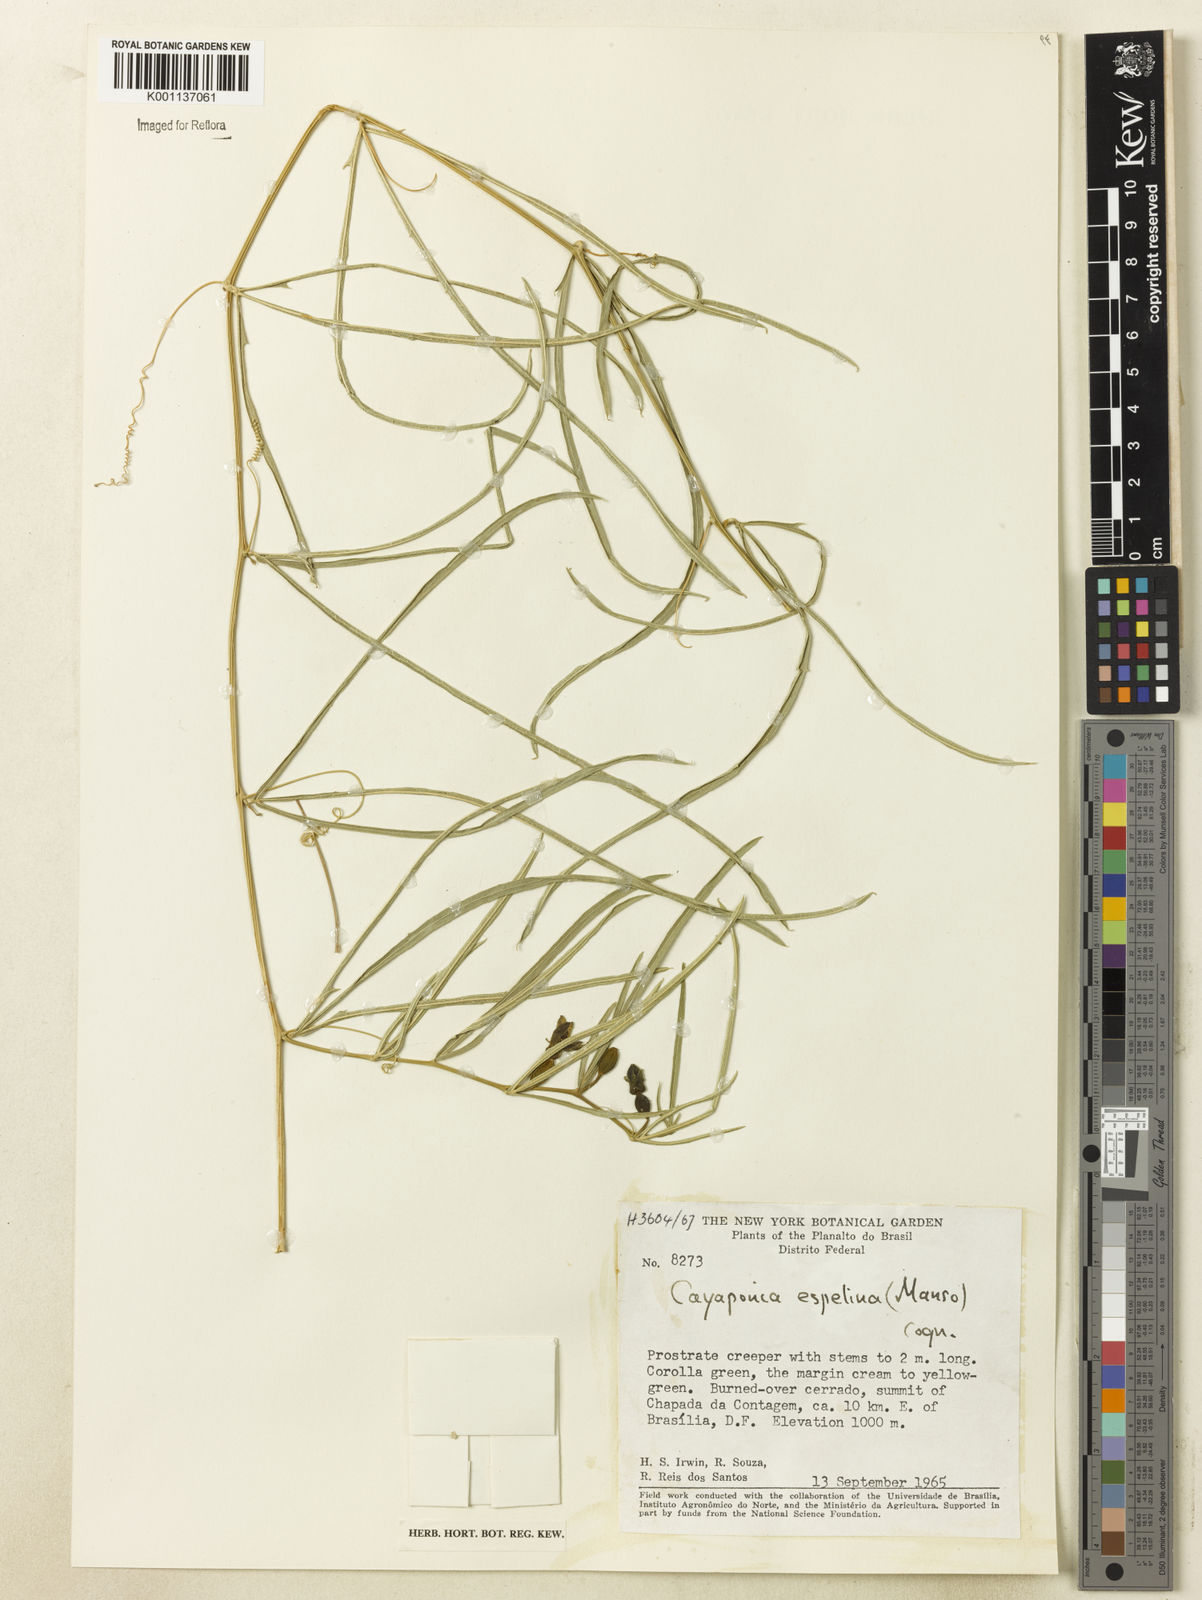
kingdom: Plantae
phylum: Tracheophyta
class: Magnoliopsida
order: Cucurbitales
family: Cucurbitaceae
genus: Cayaponia
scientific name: Cayaponia espelina
